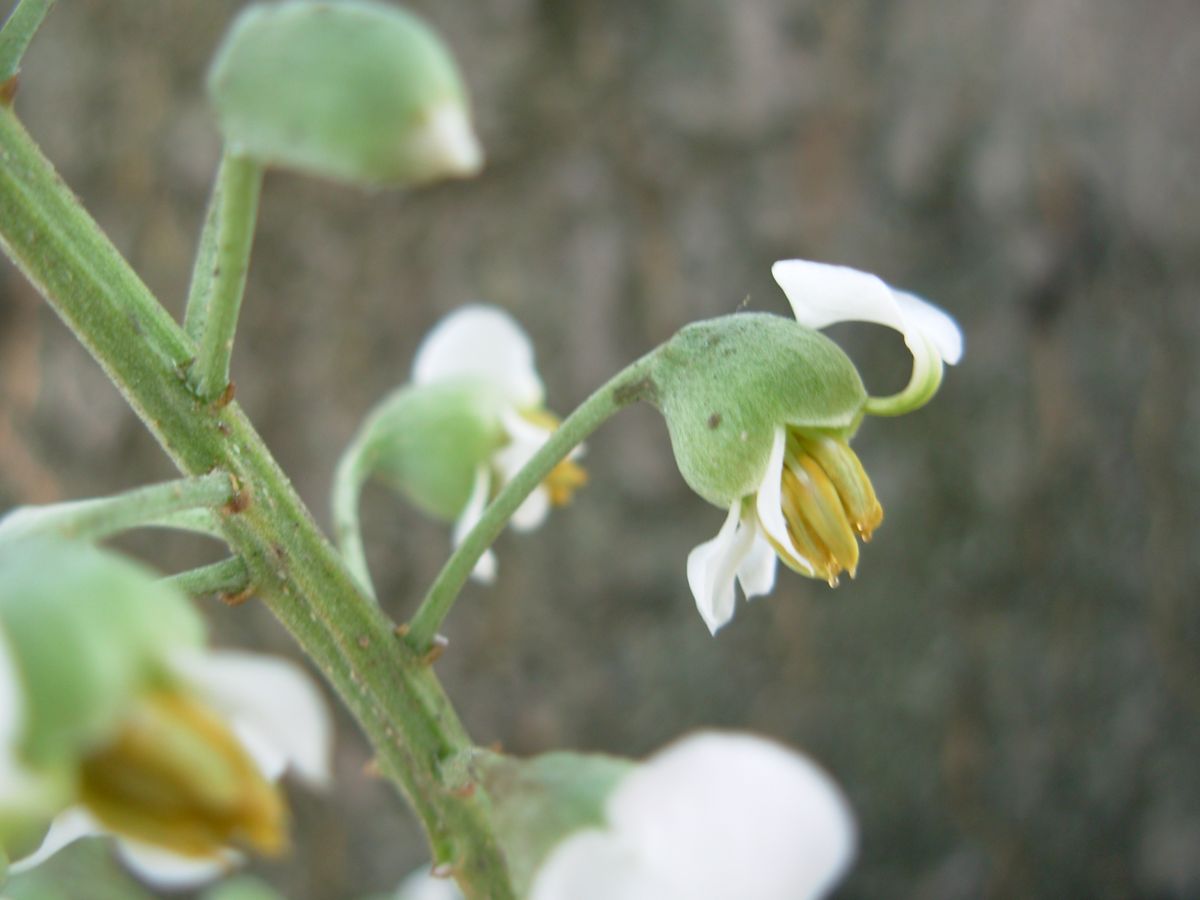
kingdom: Plantae
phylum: Tracheophyta
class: Magnoliopsida
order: Fabales
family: Fabaceae
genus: Myroxylon
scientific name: Myroxylon balsamum
